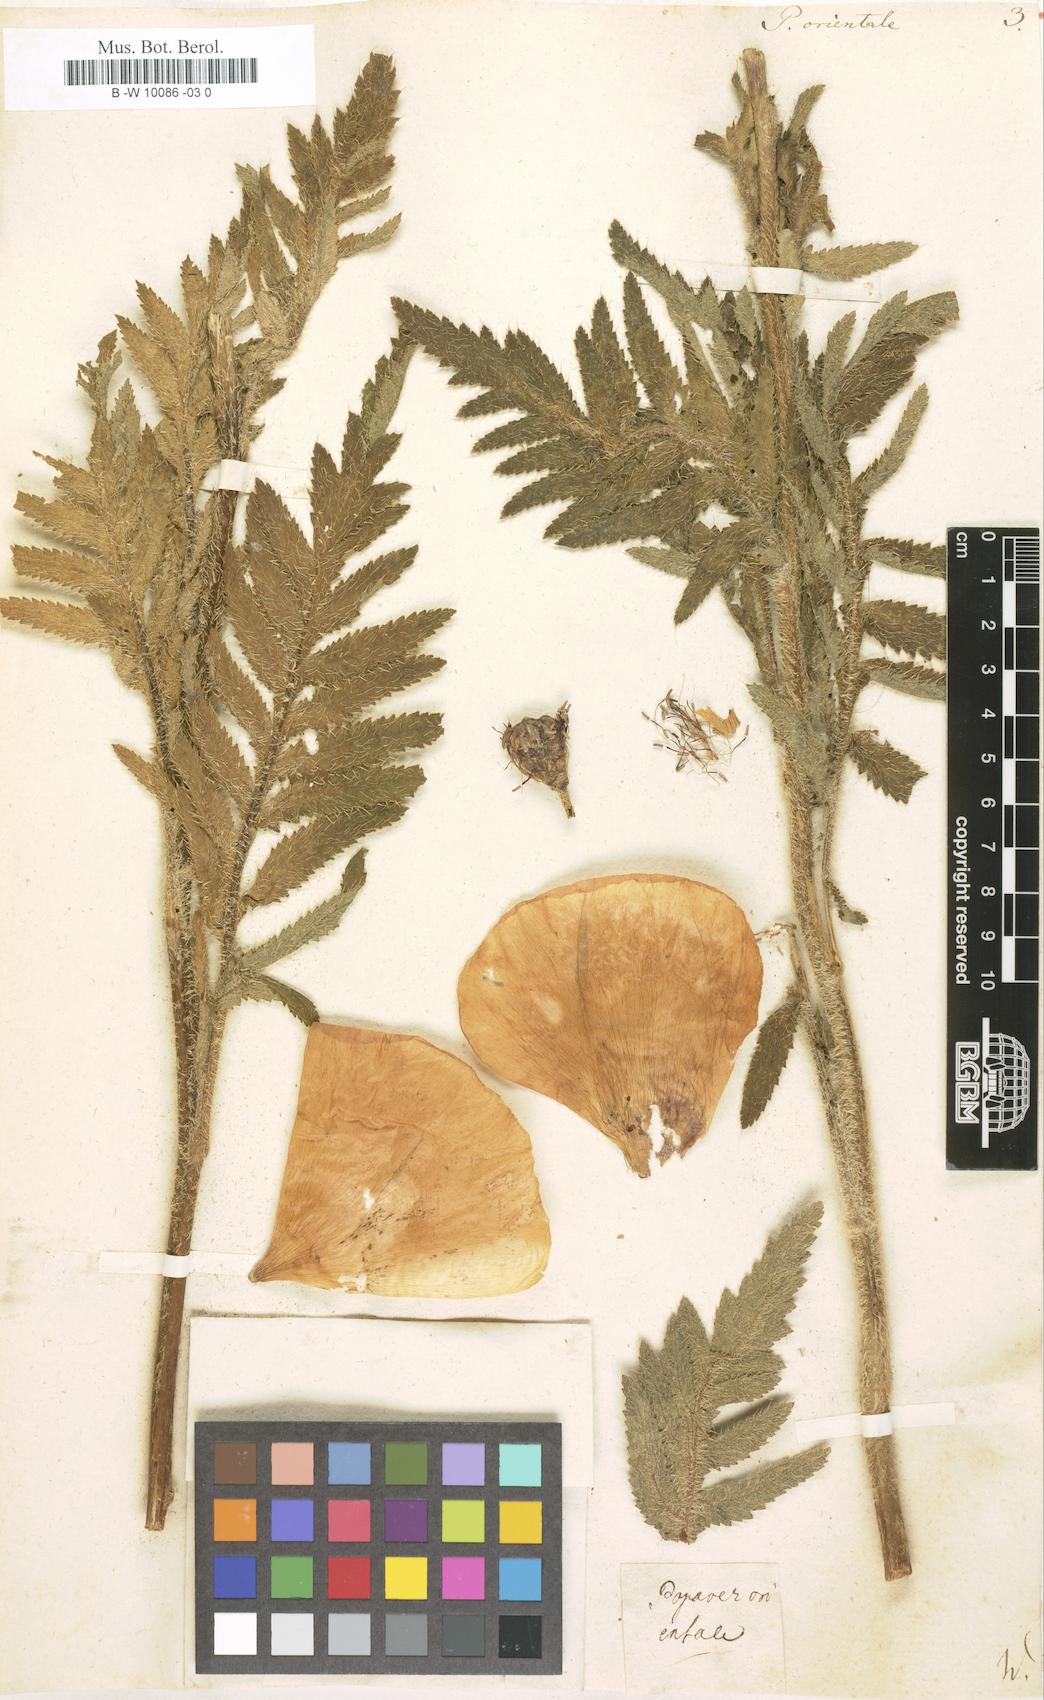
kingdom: Plantae
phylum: Tracheophyta
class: Magnoliopsida
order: Ranunculales
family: Papaveraceae
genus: Papaver
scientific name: Papaver orientale
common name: Oriental poppy
